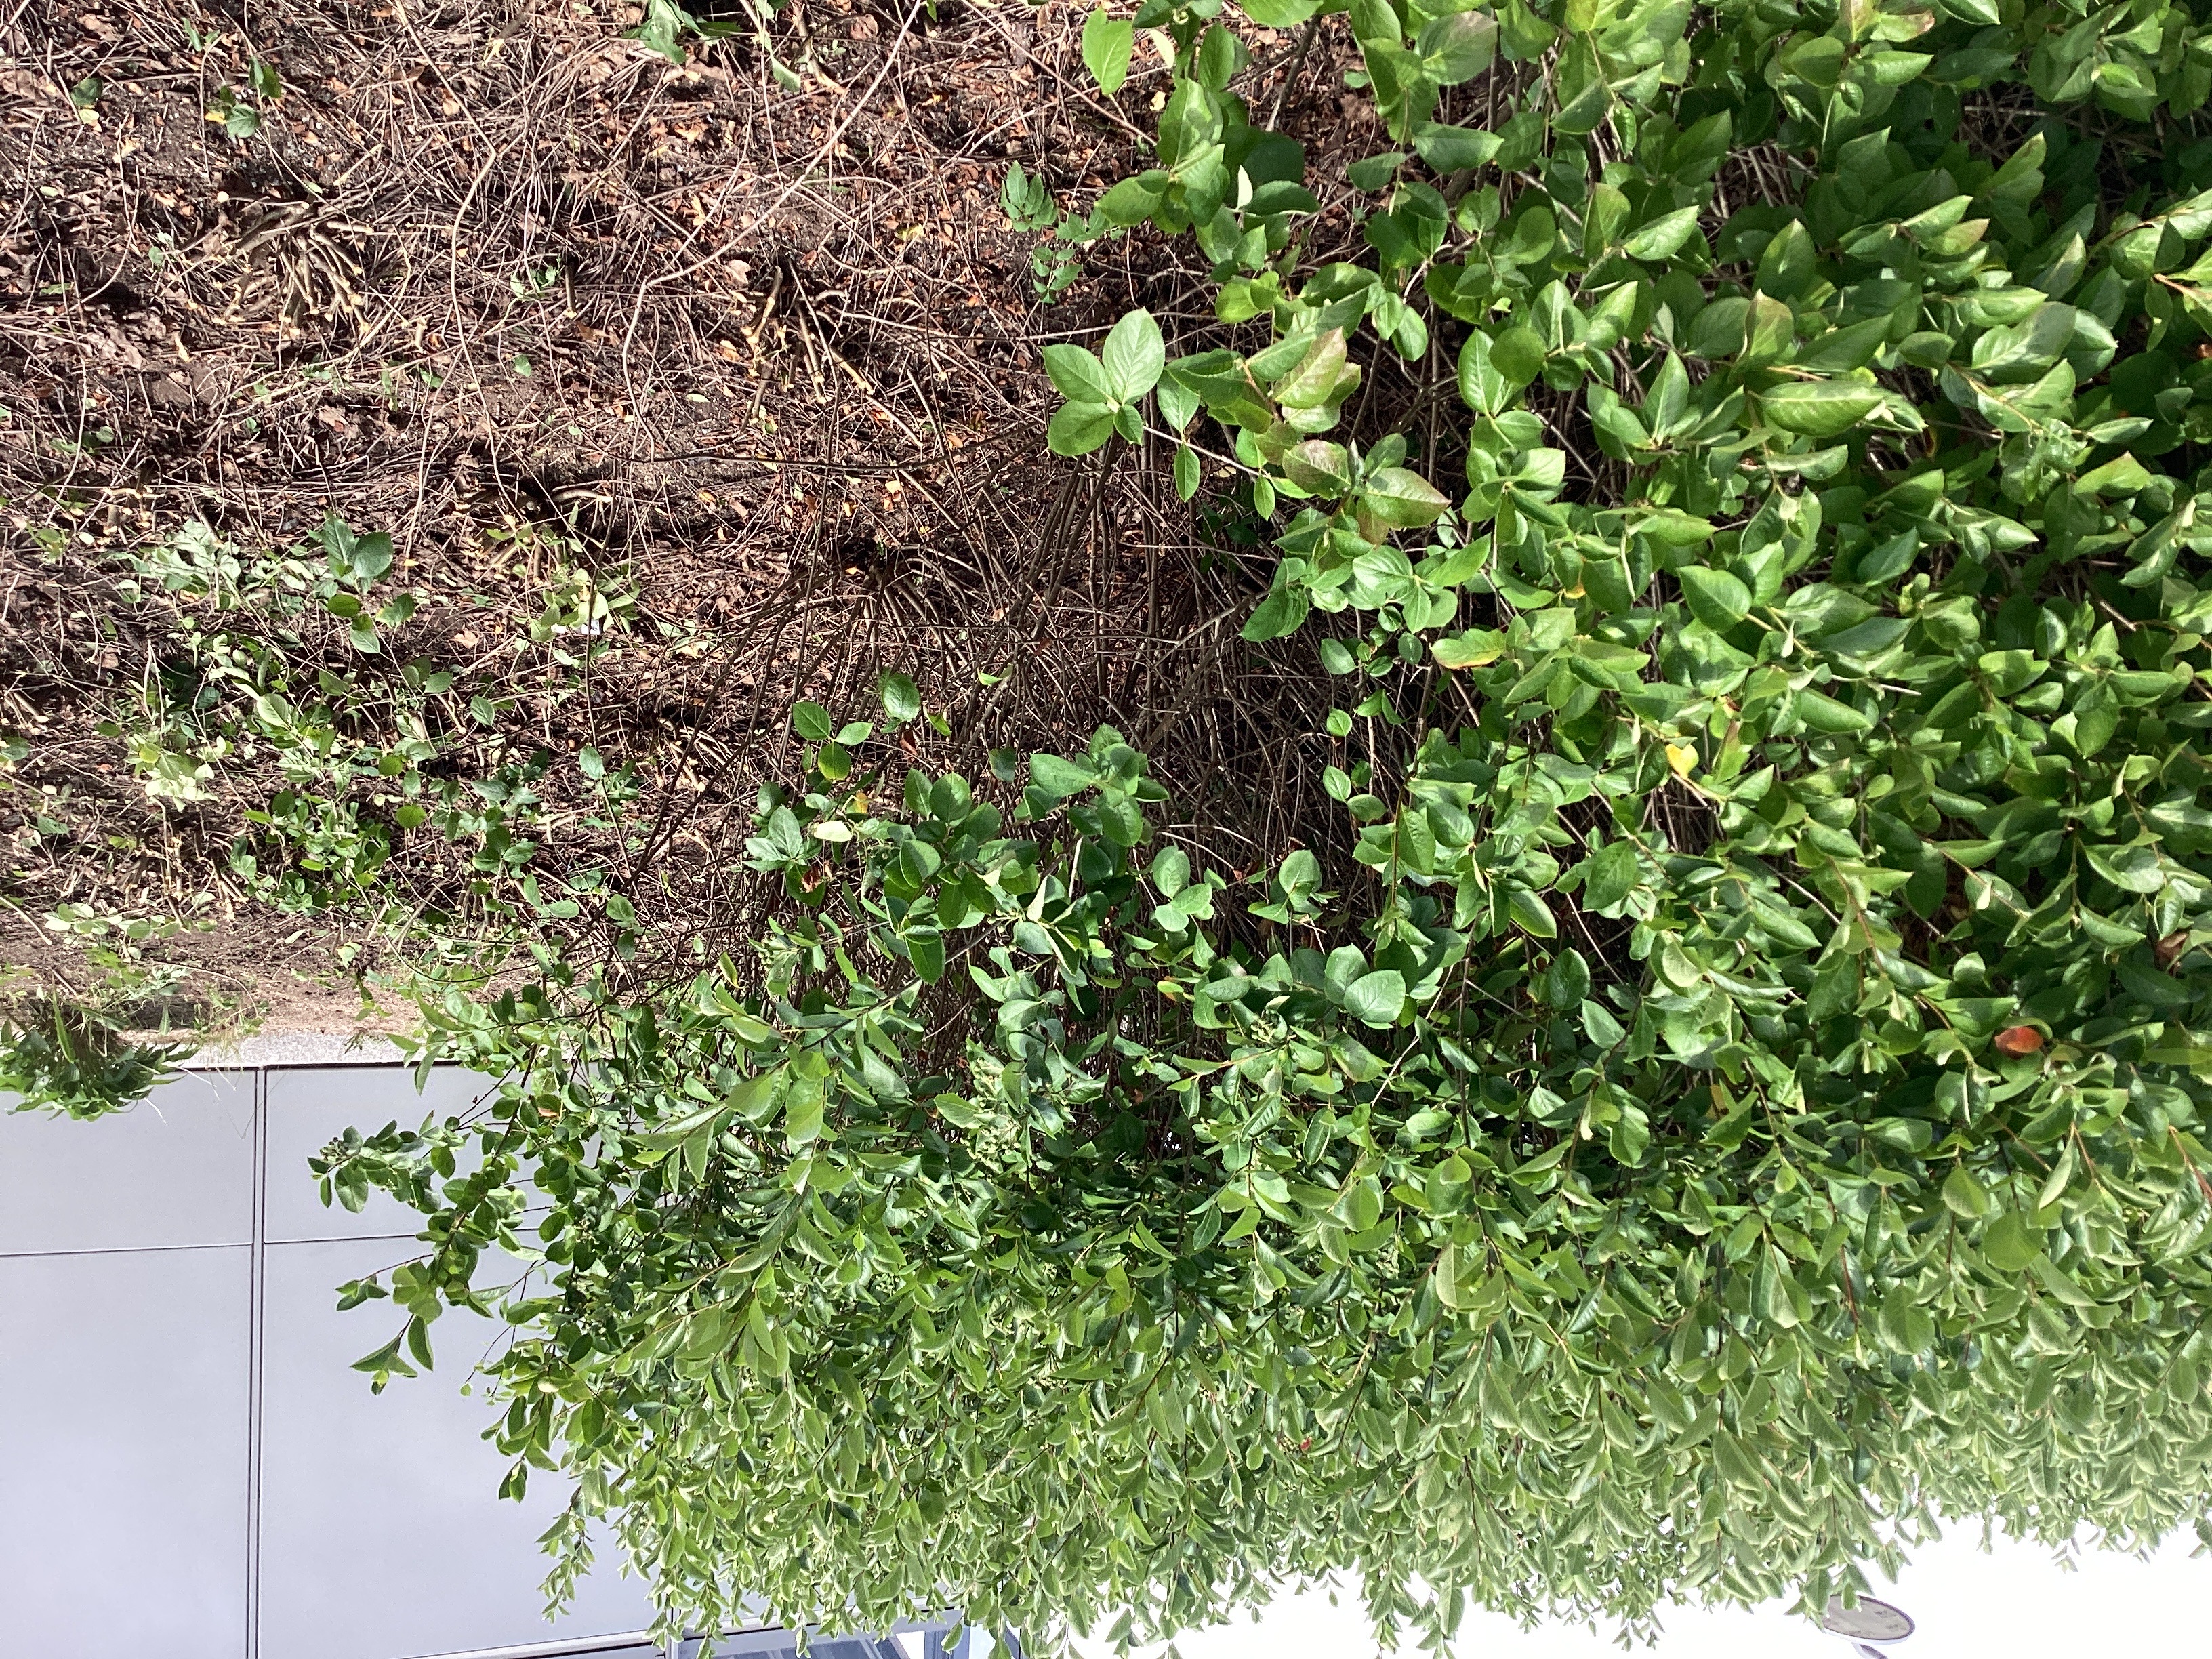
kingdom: Plantae
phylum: Tracheophyta
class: Magnoliopsida
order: Rosales
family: Rosaceae
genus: Aronia
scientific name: Aronia melanocarpa
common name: svartsurbær
